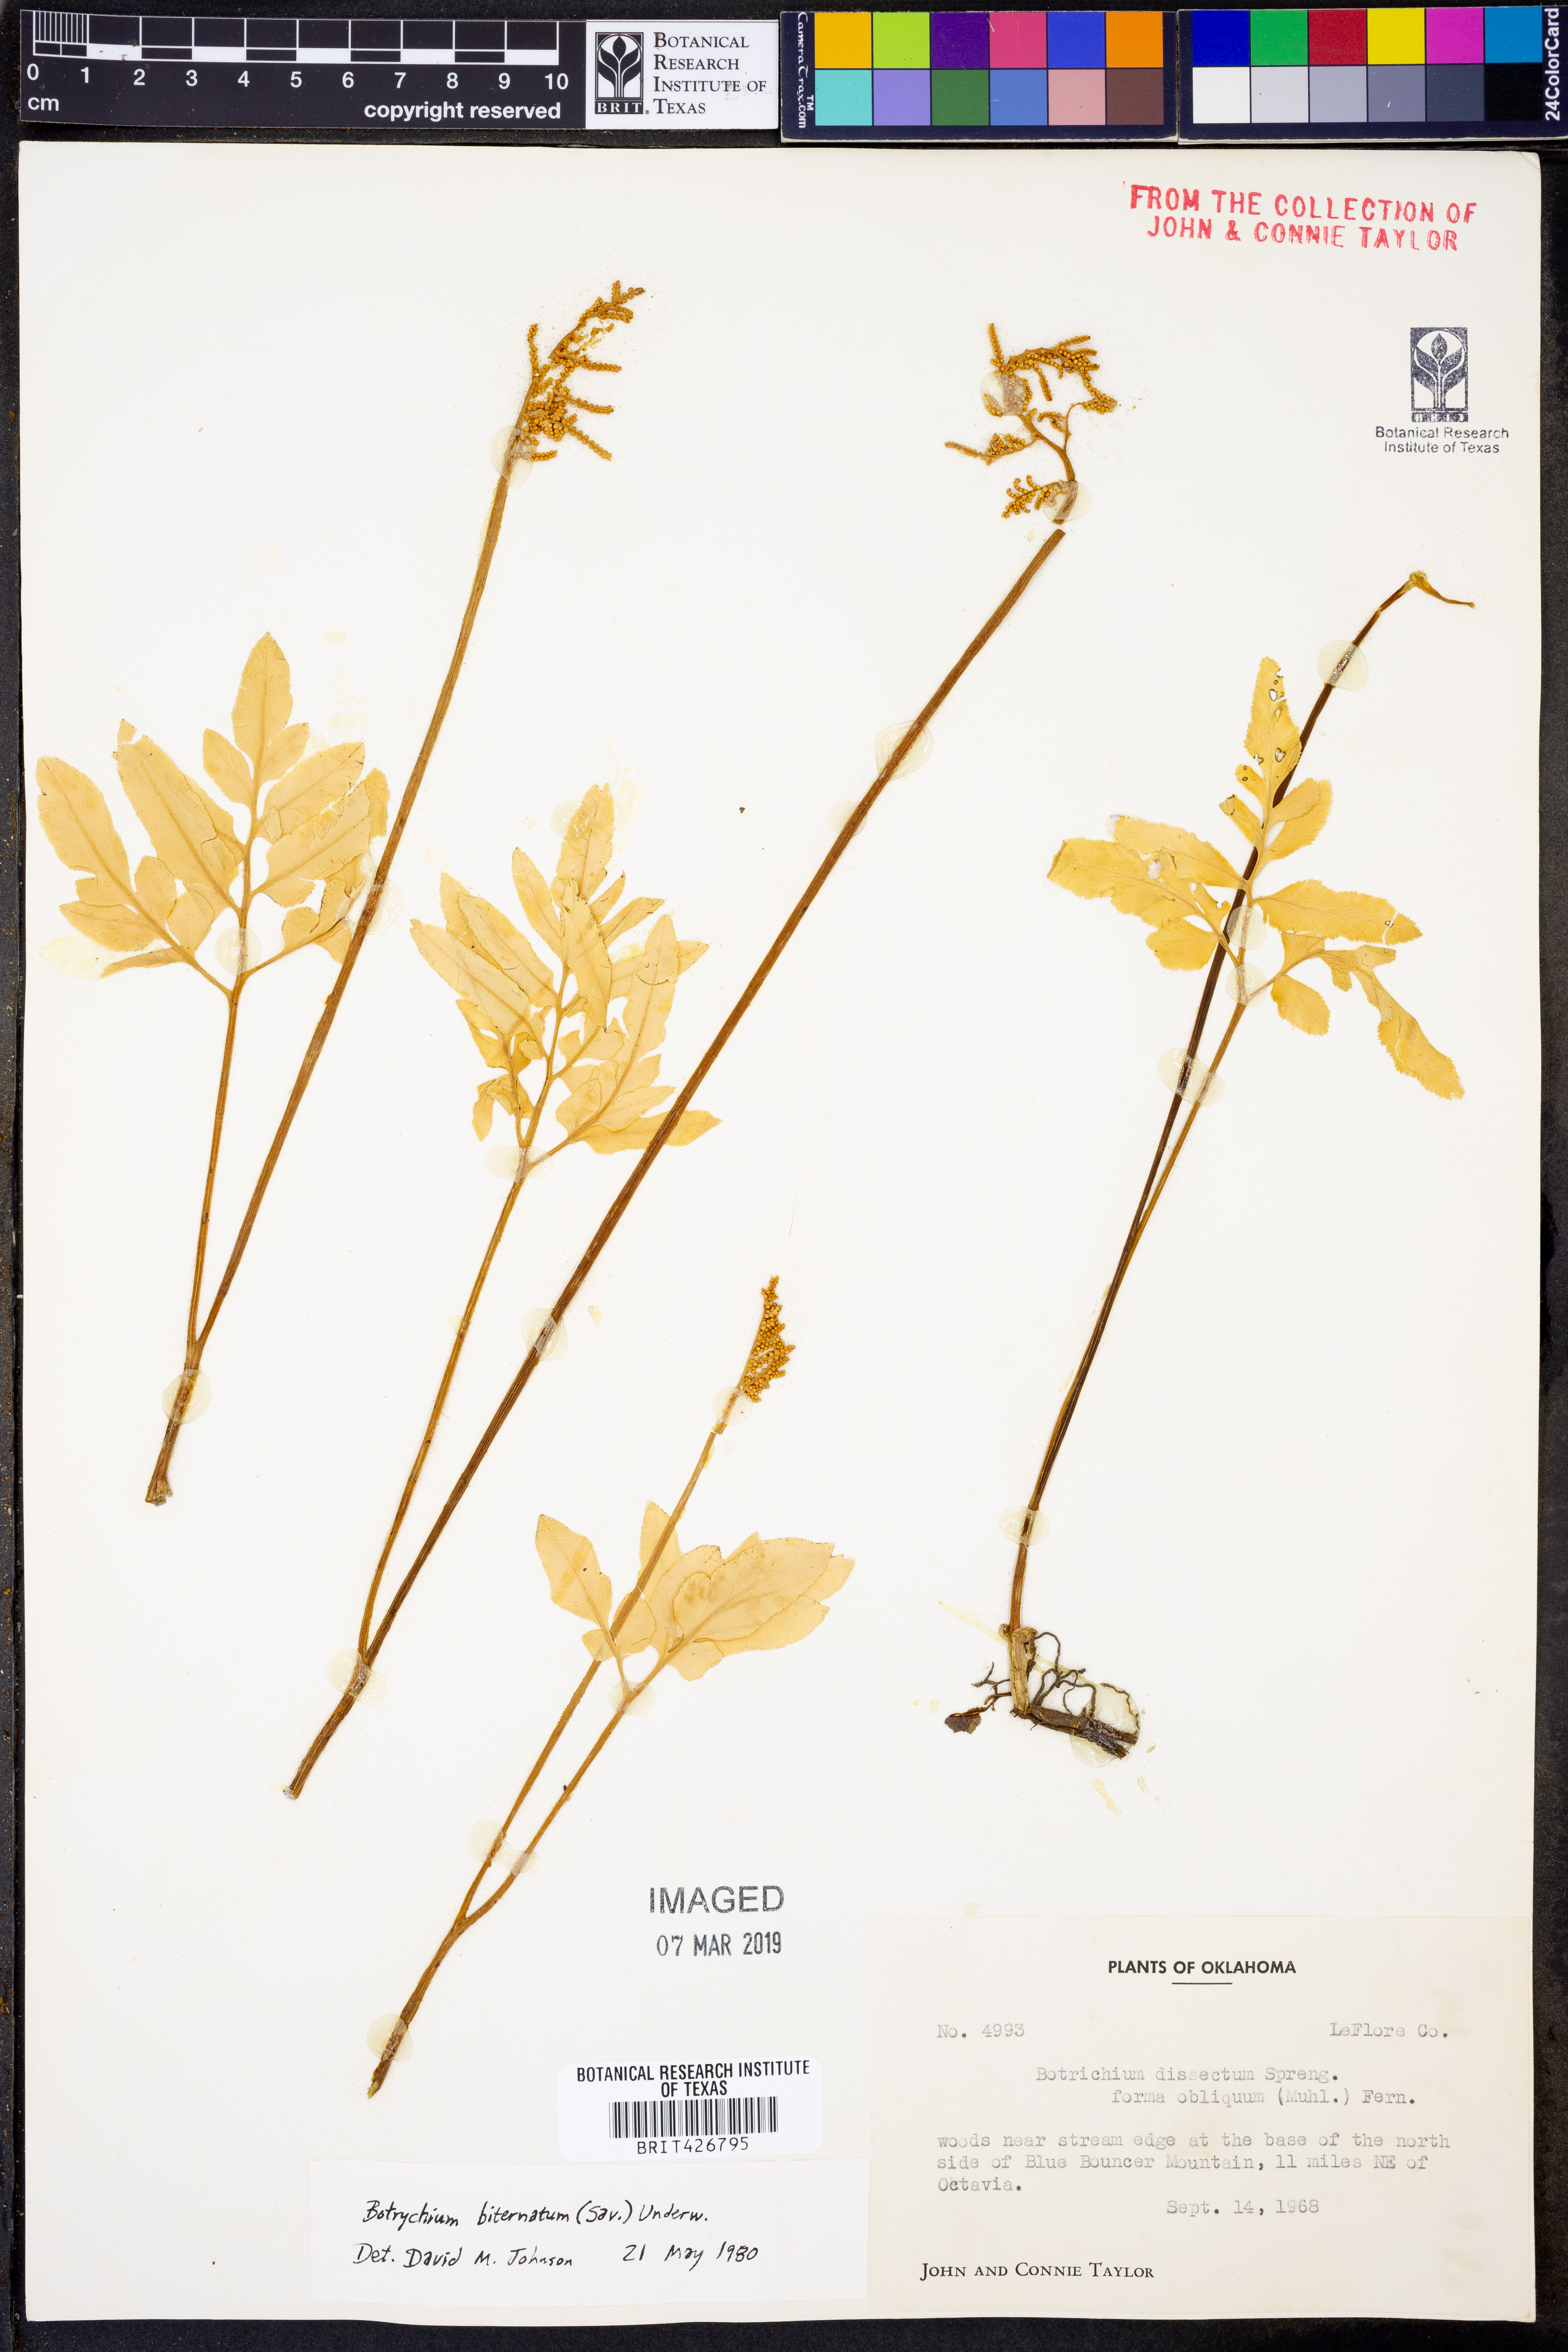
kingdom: Plantae
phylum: Tracheophyta
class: Polypodiopsida
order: Ophioglossales
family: Ophioglossaceae
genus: Sceptridium
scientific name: Sceptridium biternatum
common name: Sparse-lobed grapefern
